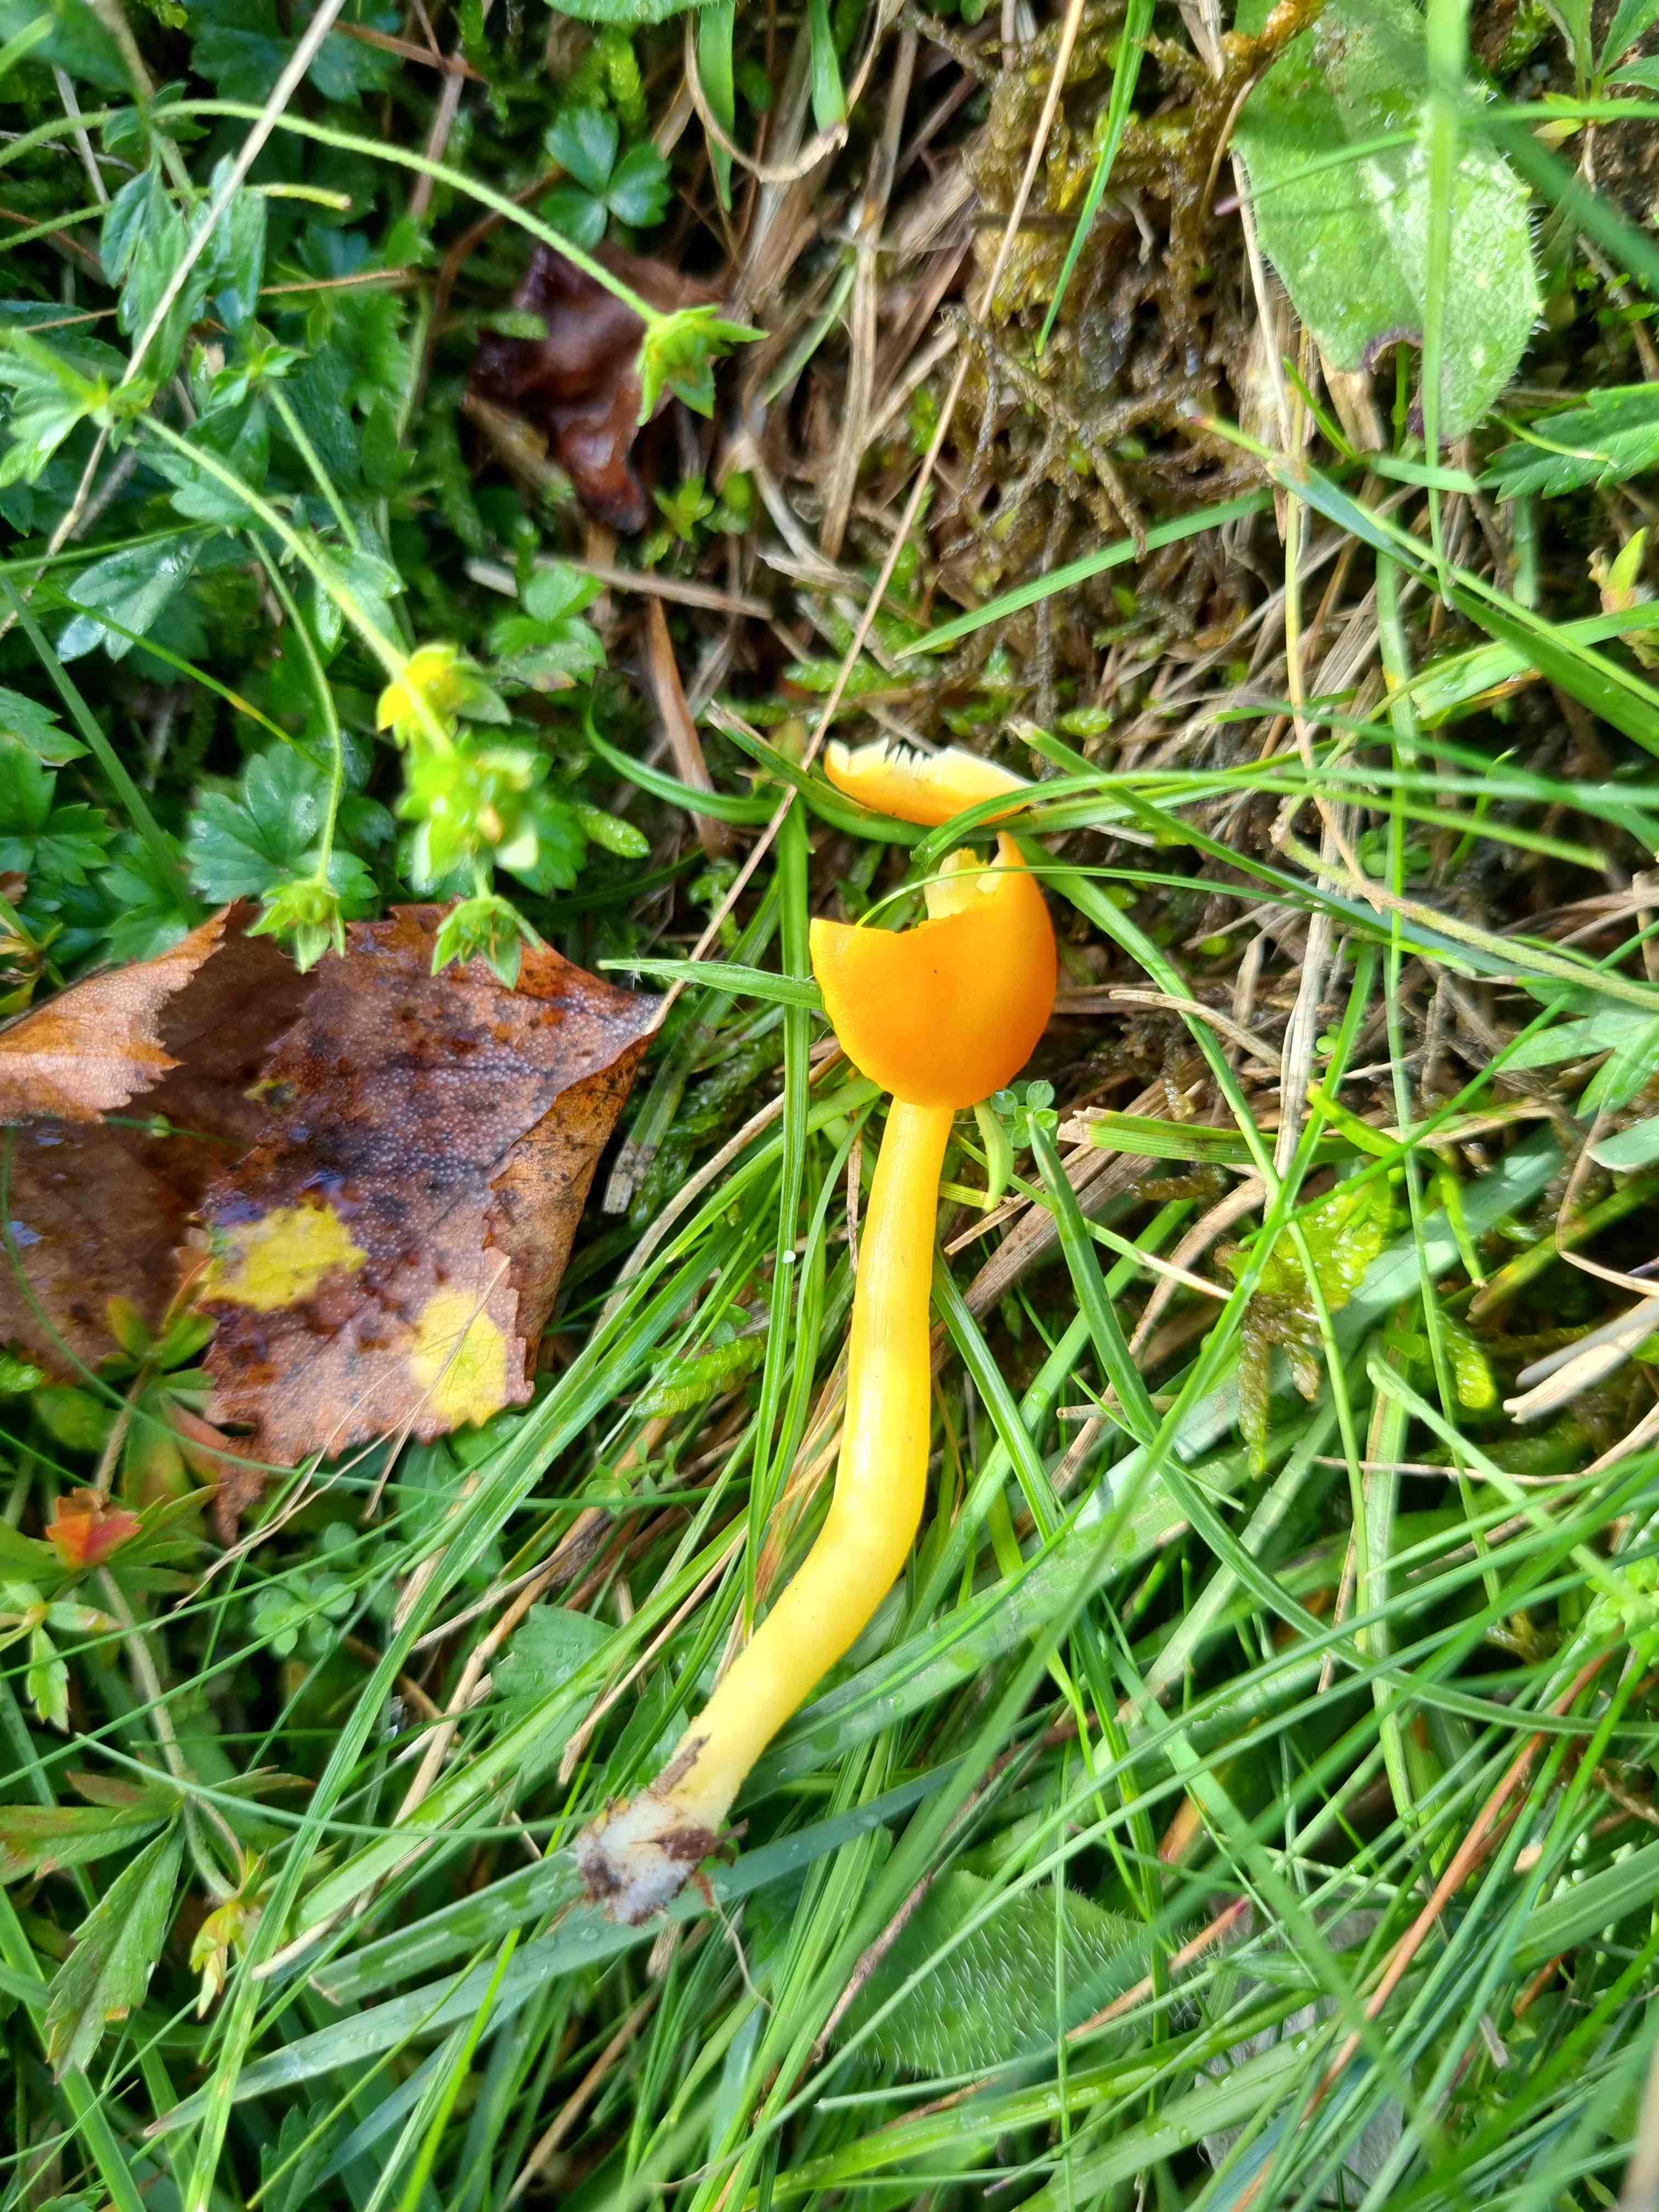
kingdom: Fungi
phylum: Basidiomycota
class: Agaricomycetes
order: Agaricales
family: Hygrophoraceae
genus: Hygrocybe
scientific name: Hygrocybe reidii
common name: honning-vokshat
